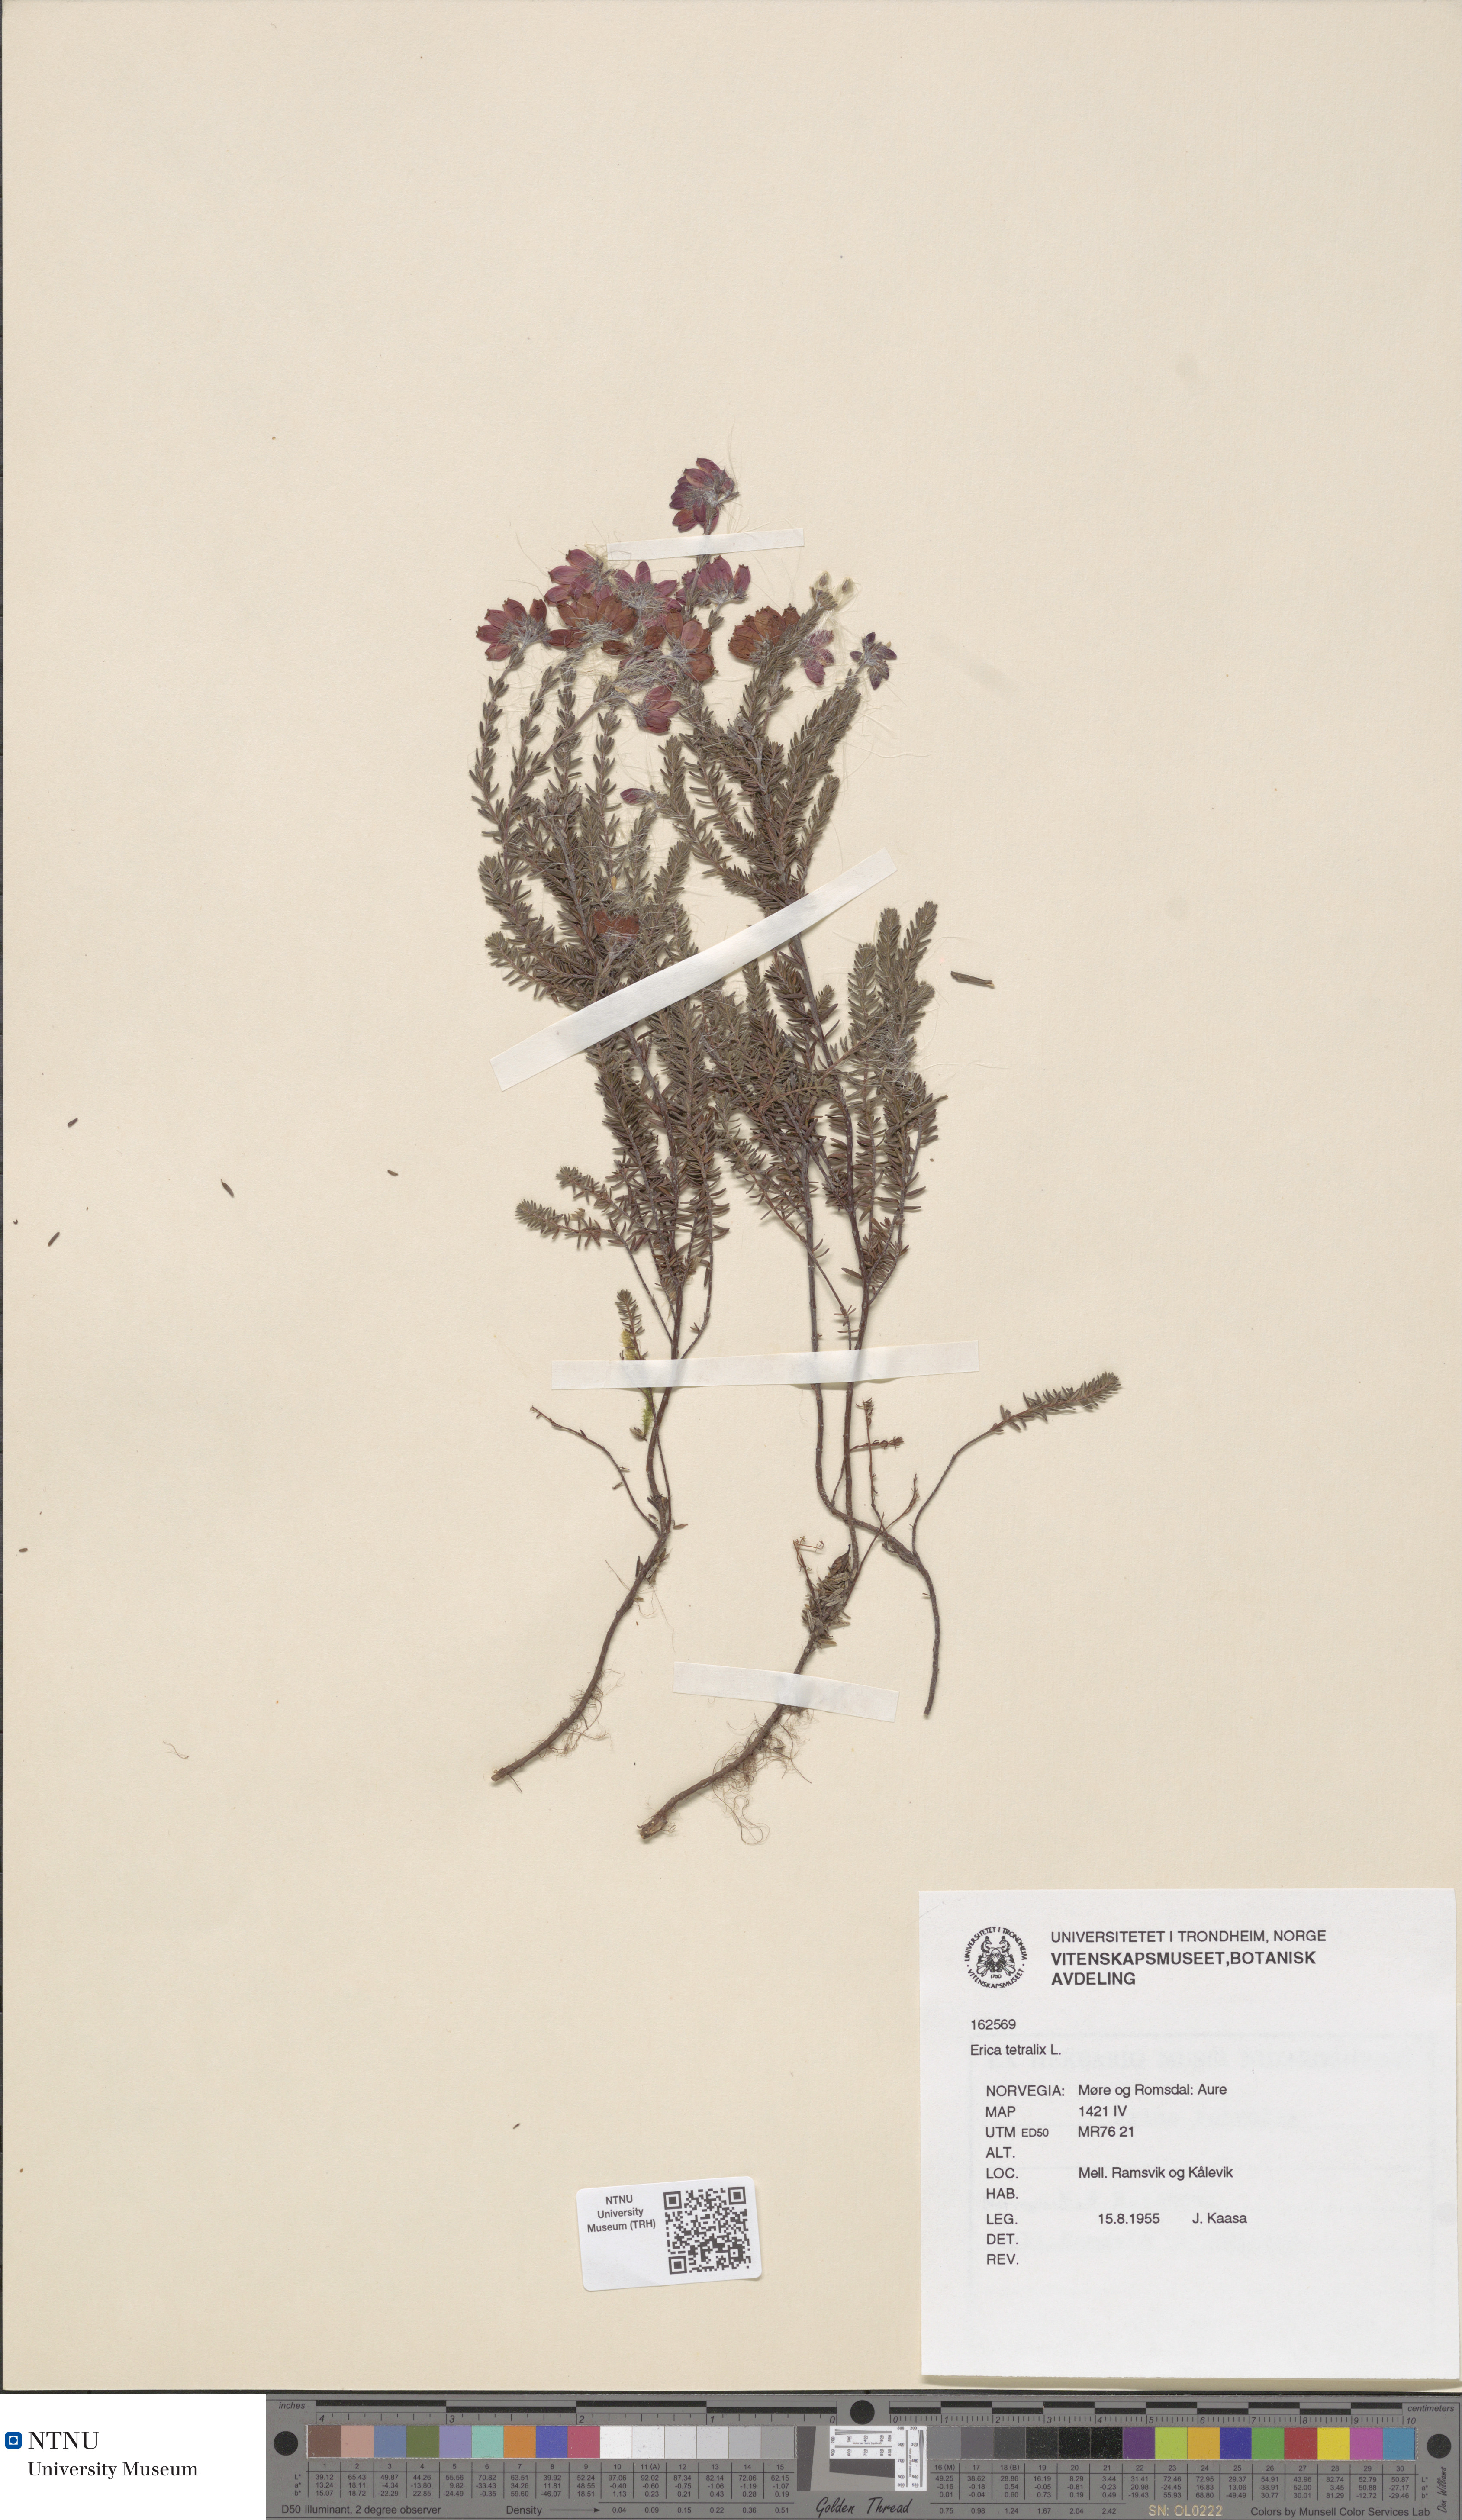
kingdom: Plantae
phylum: Tracheophyta
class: Magnoliopsida
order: Ericales
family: Ericaceae
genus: Erica
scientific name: Erica tetralix
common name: Cross-leaved heath
